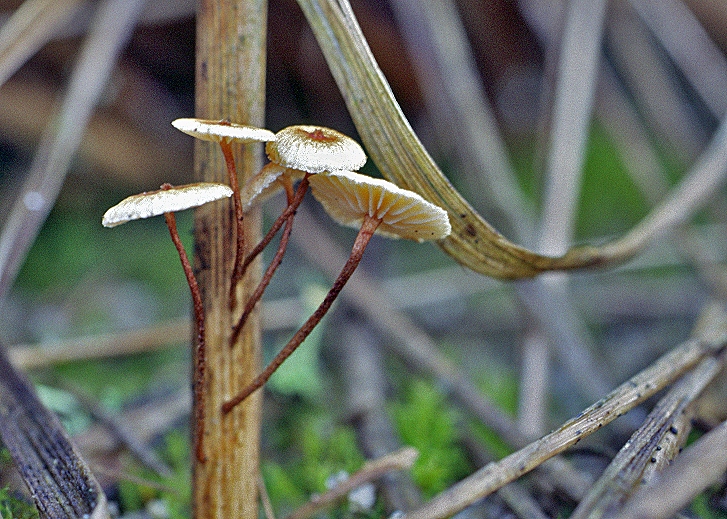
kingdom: Fungi
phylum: Basidiomycota
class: Agaricomycetes
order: Agaricales
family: Marasmiaceae
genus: Crinipellis
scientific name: Crinipellis scabella
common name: børstefod
